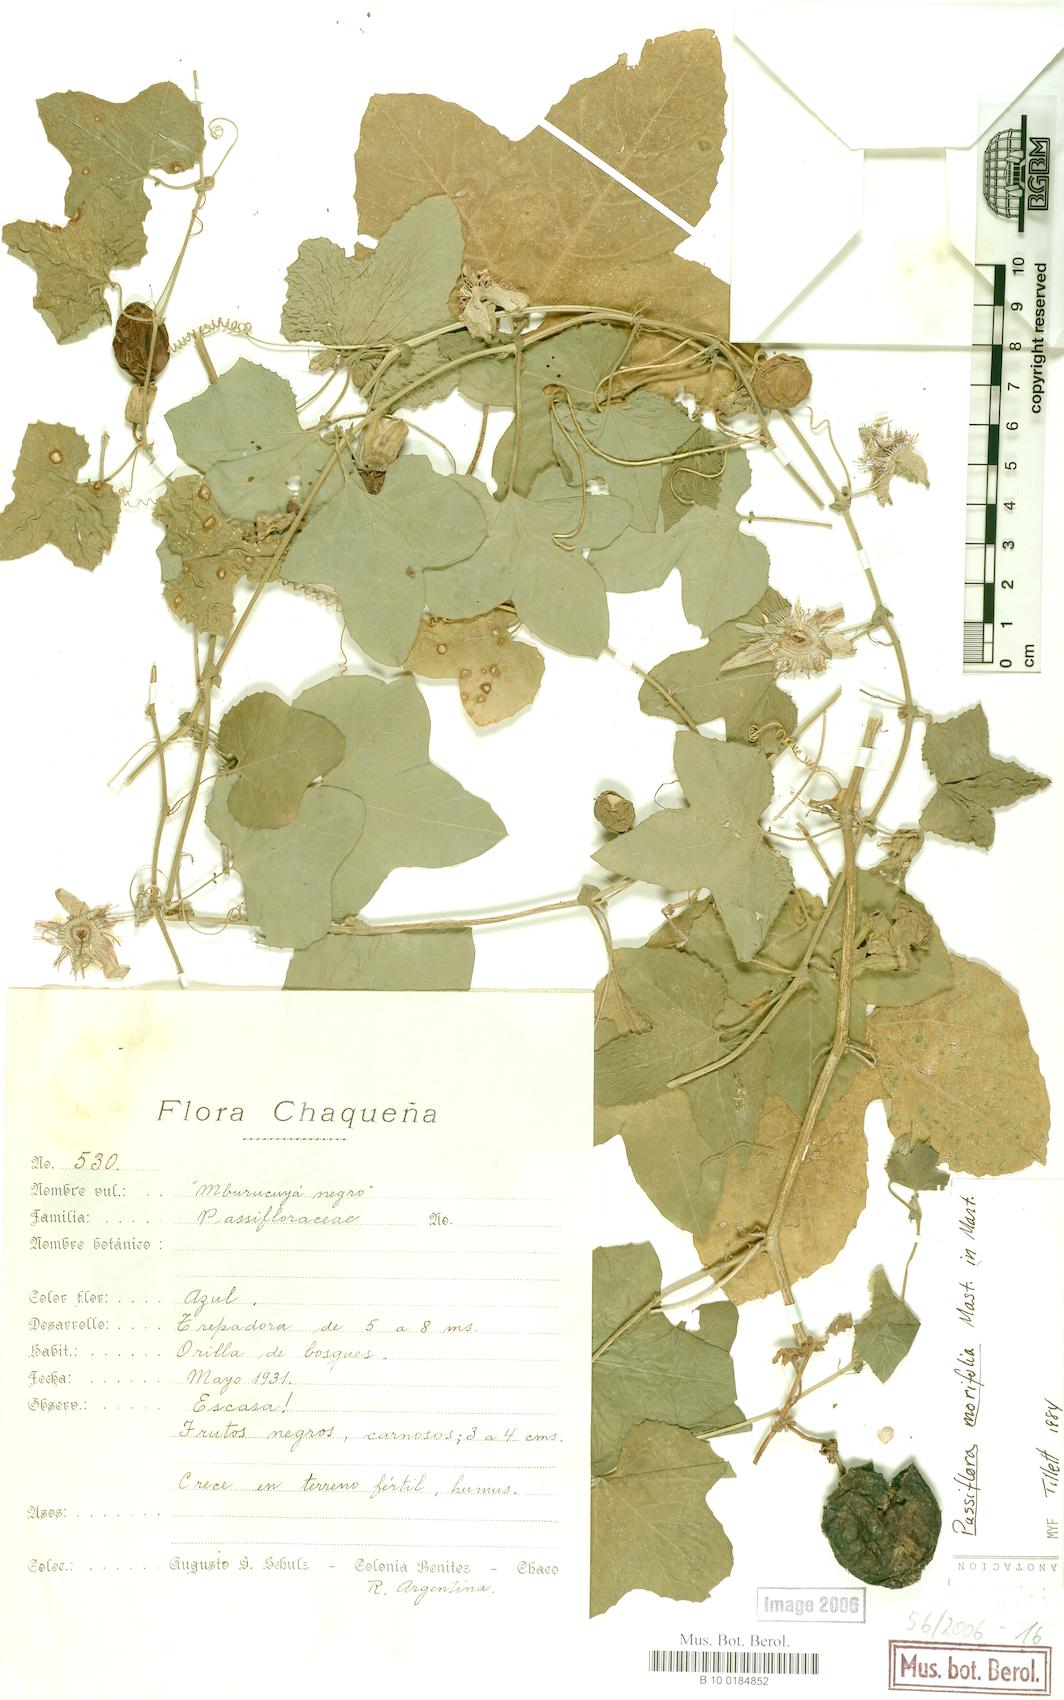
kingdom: Plantae
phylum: Tracheophyta
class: Magnoliopsida
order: Malpighiales
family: Passifloraceae
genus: Passiflora
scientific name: Passiflora morifolia
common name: Woodland passionflower
